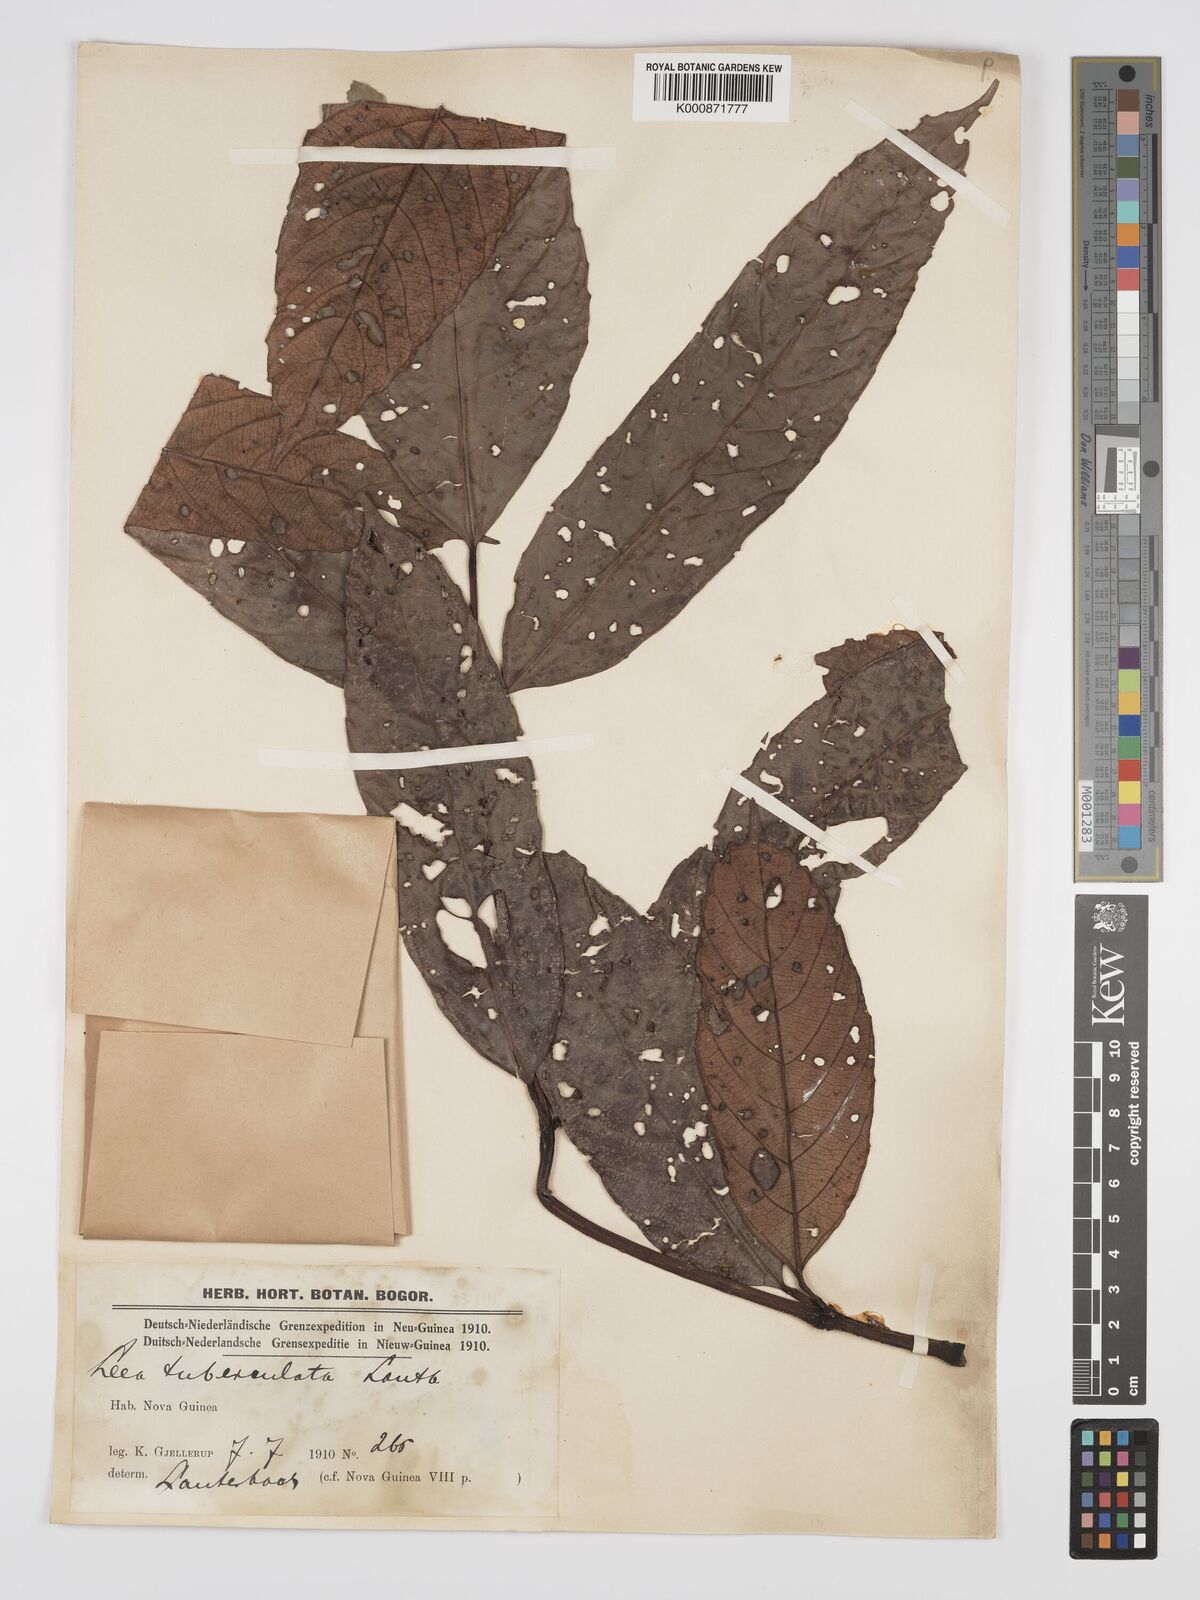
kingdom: Plantae
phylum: Tracheophyta
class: Magnoliopsida
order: Vitales
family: Vitaceae
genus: Leea
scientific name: Leea heterodoxa
